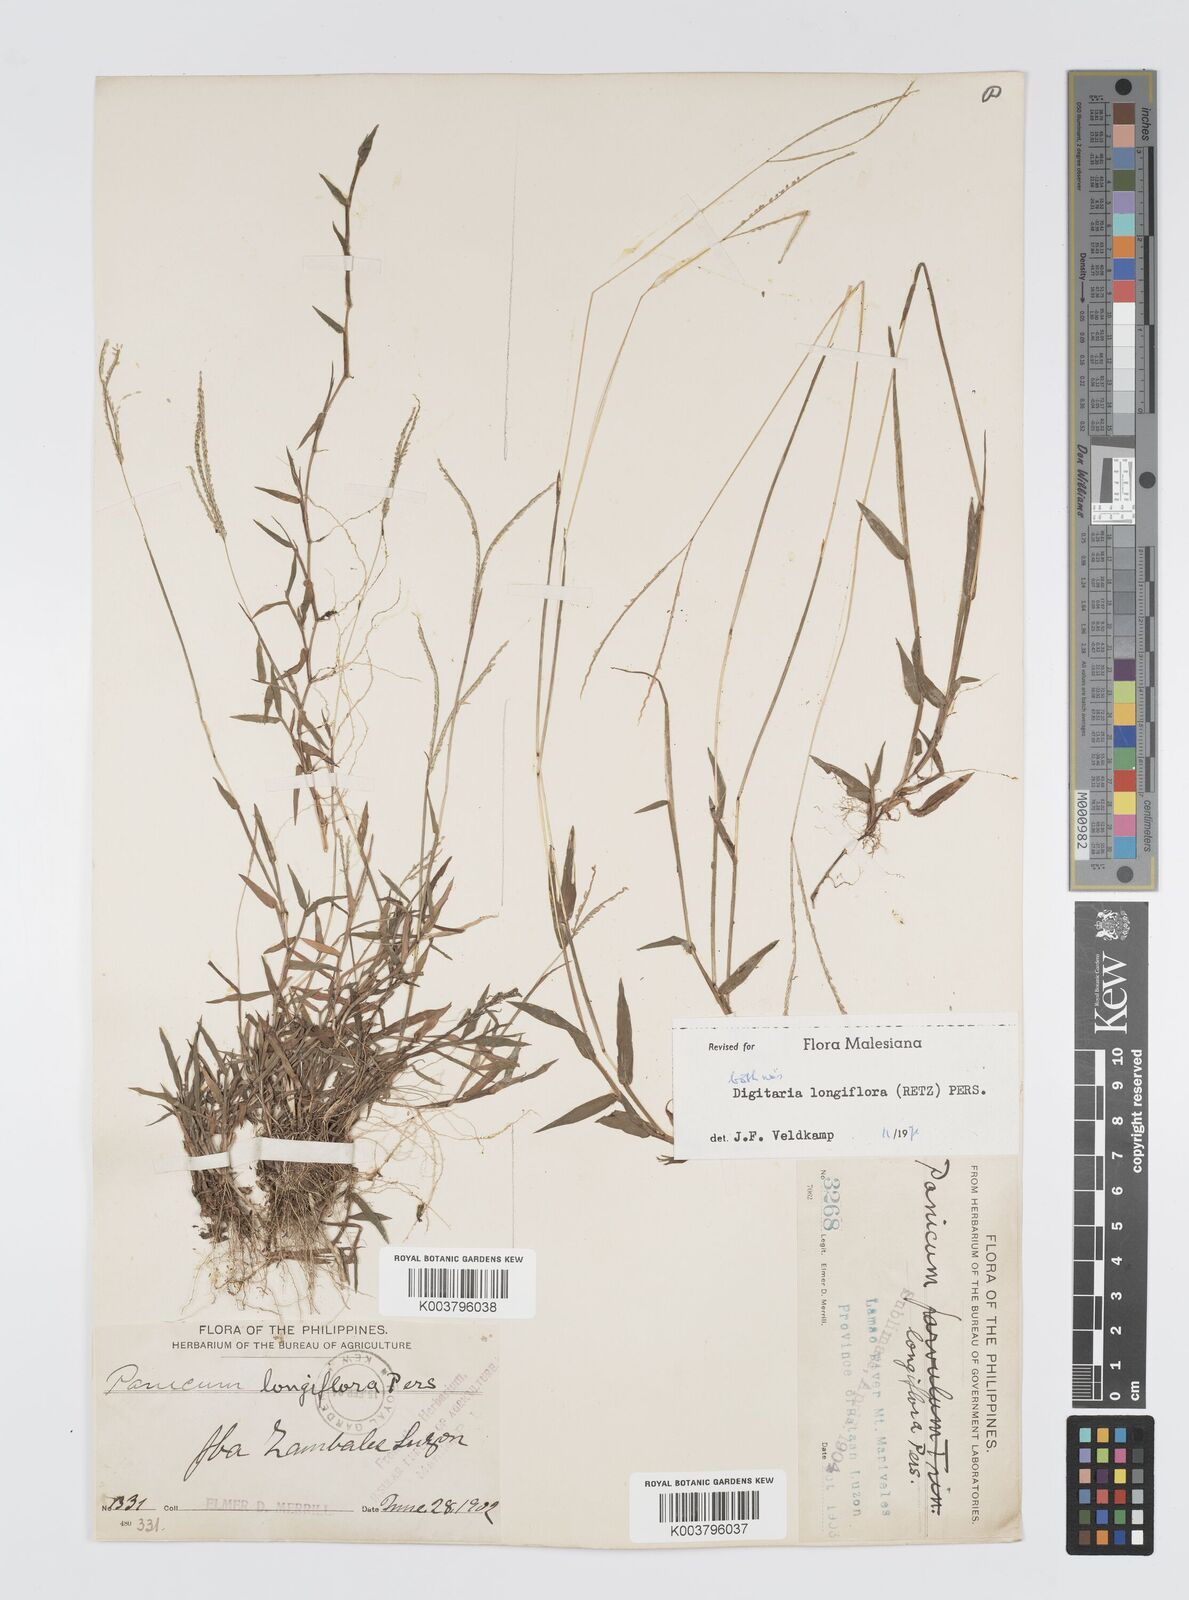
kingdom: Plantae
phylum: Tracheophyta
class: Liliopsida
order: Poales
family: Poaceae
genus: Digitaria
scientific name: Digitaria longiflora
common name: Wire crabgrass
